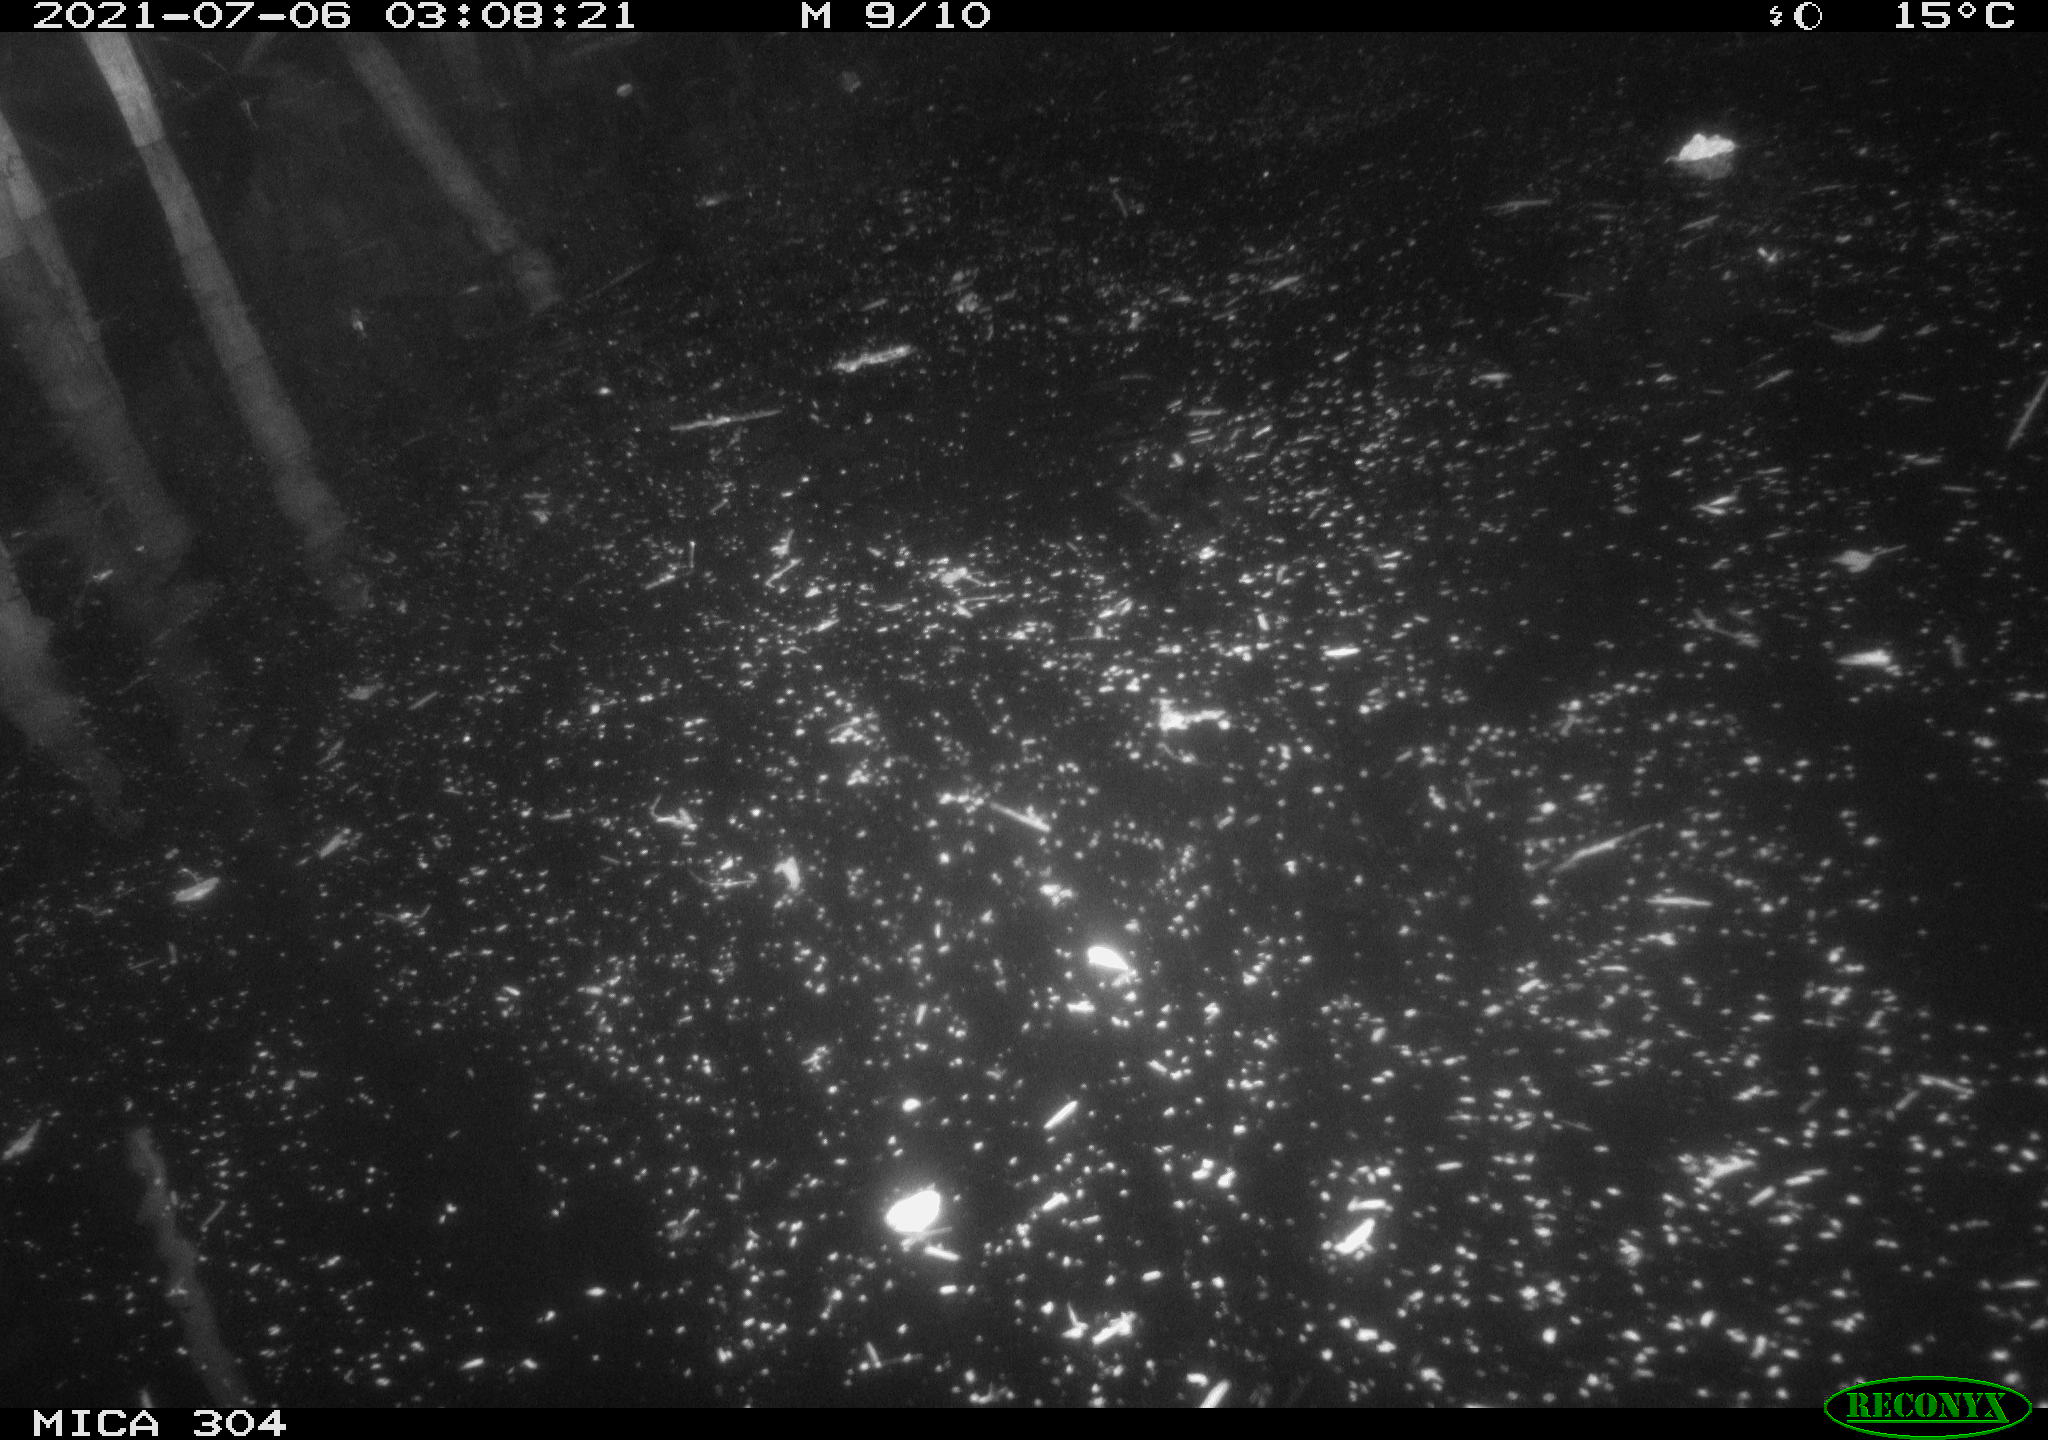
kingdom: Animalia
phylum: Chordata
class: Aves
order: Anseriformes
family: Anatidae
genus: Anas
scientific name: Anas platyrhynchos
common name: Mallard
